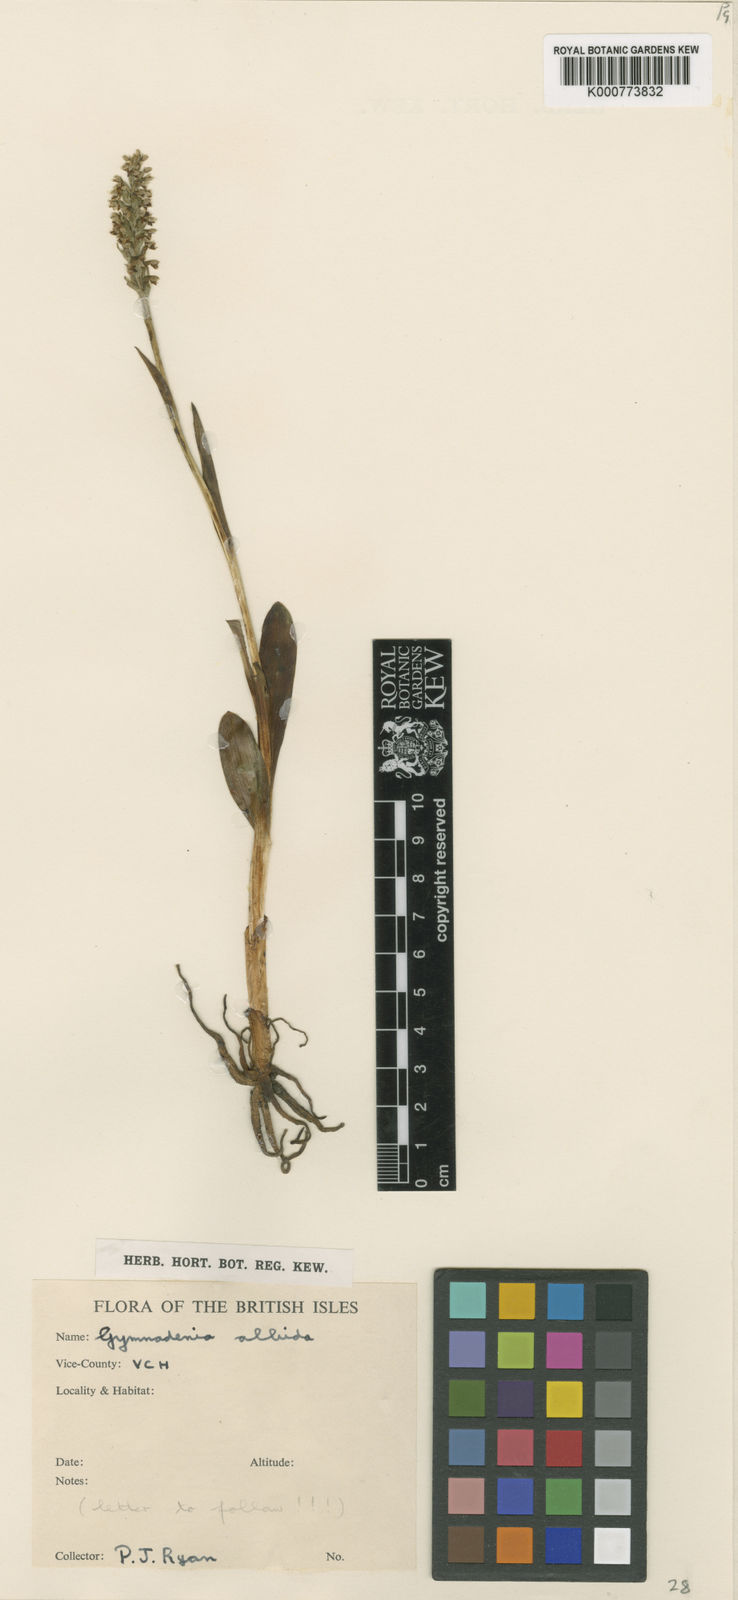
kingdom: Plantae
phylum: Tracheophyta
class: Liliopsida
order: Asparagales
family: Orchidaceae
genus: Pseudorchis
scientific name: Pseudorchis
